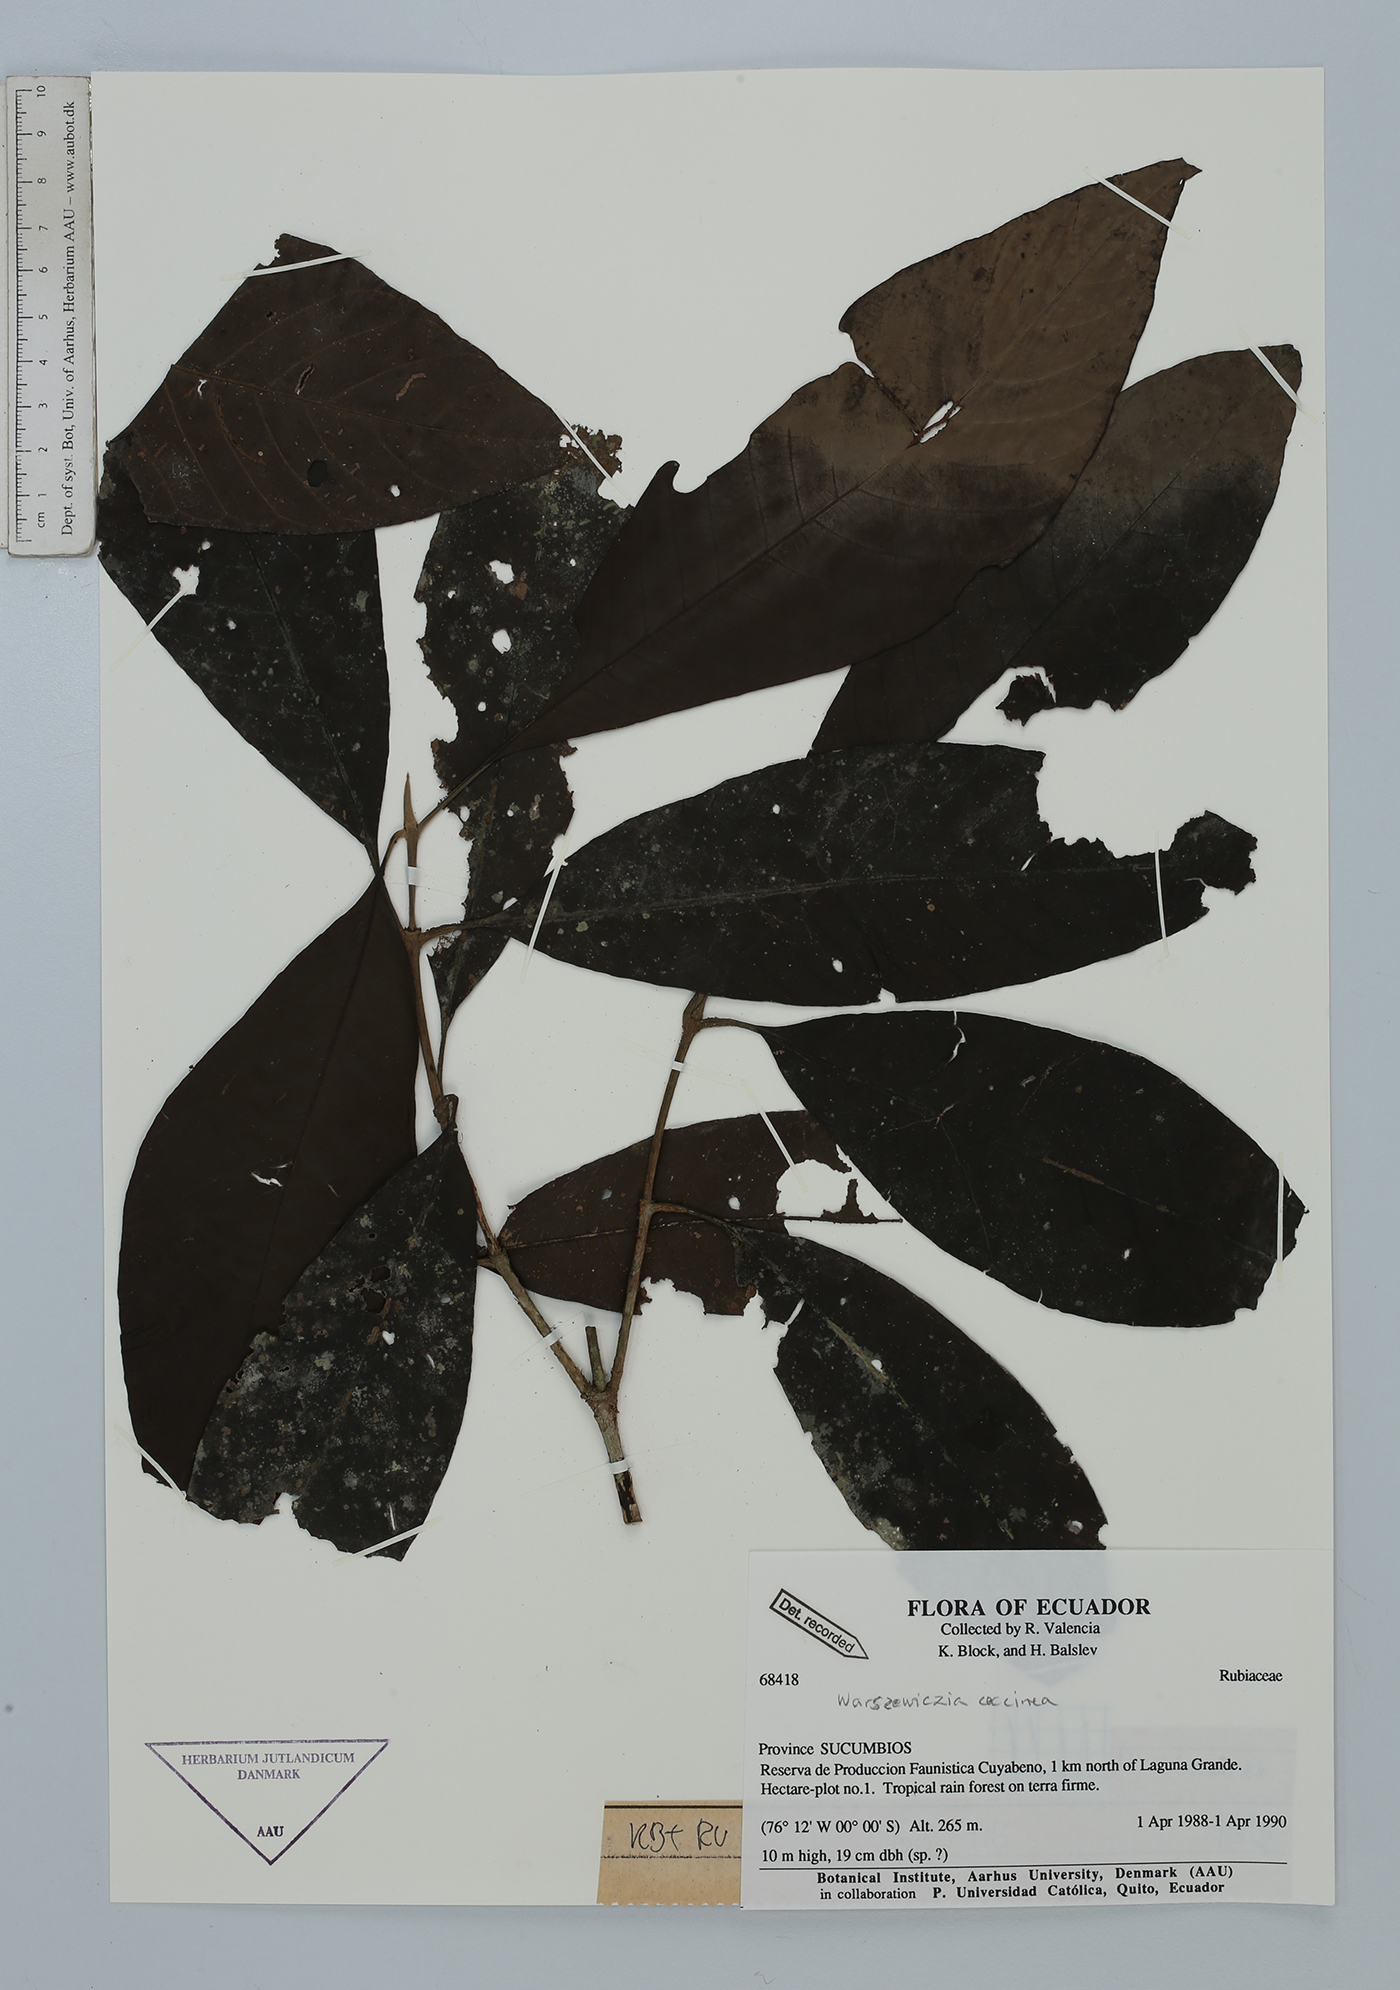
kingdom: Plantae
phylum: Tracheophyta
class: Magnoliopsida
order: Gentianales
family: Rubiaceae
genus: Warszewiczia
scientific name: Warszewiczia coccinea
